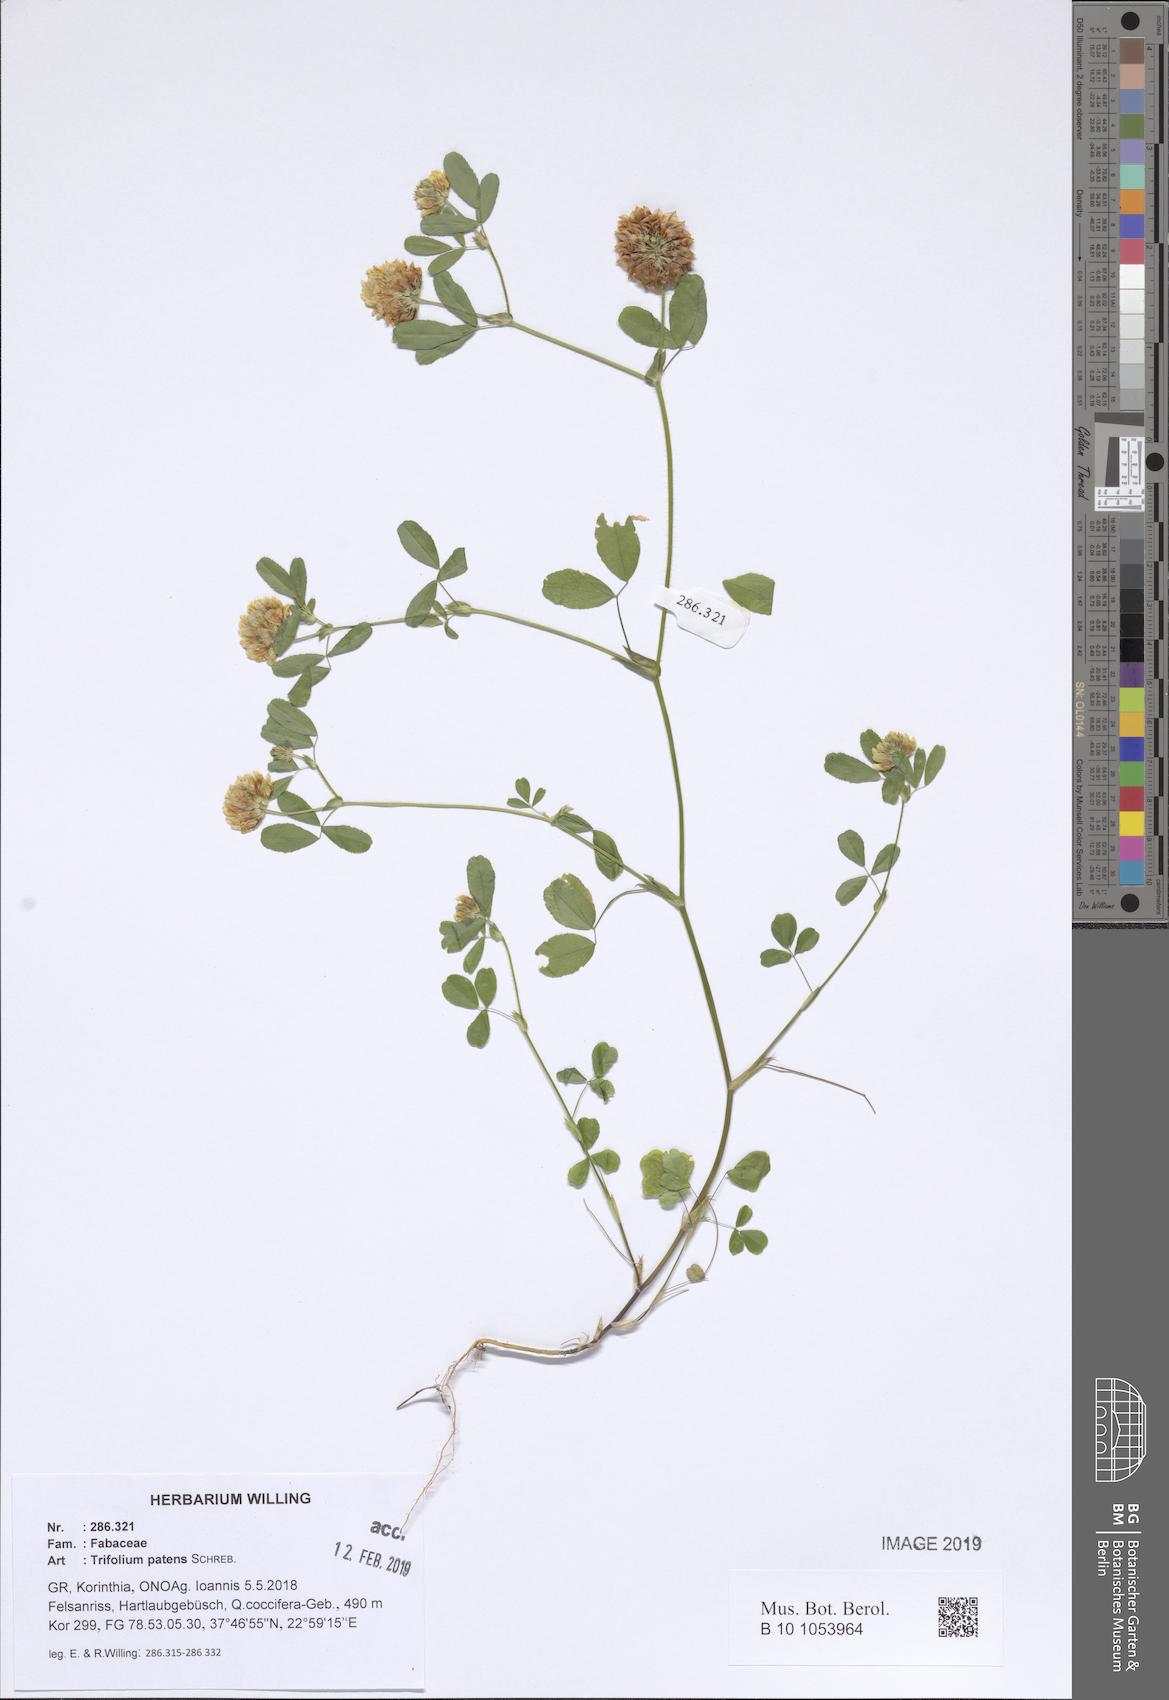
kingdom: Plantae
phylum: Tracheophyta
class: Magnoliopsida
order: Fabales
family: Fabaceae
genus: Trifolium
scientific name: Trifolium patens
